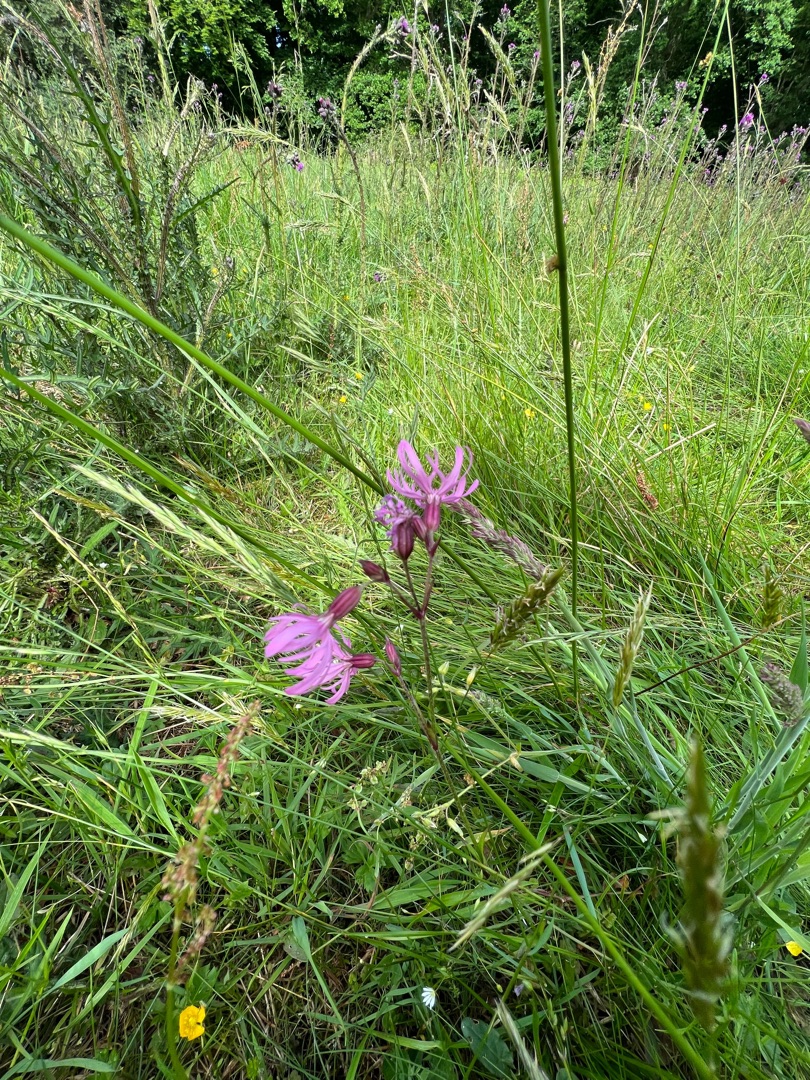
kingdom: Plantae
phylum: Tracheophyta
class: Magnoliopsida
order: Caryophyllales
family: Caryophyllaceae
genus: Silene
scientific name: Silene flos-cuculi
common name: Trævlekrone
